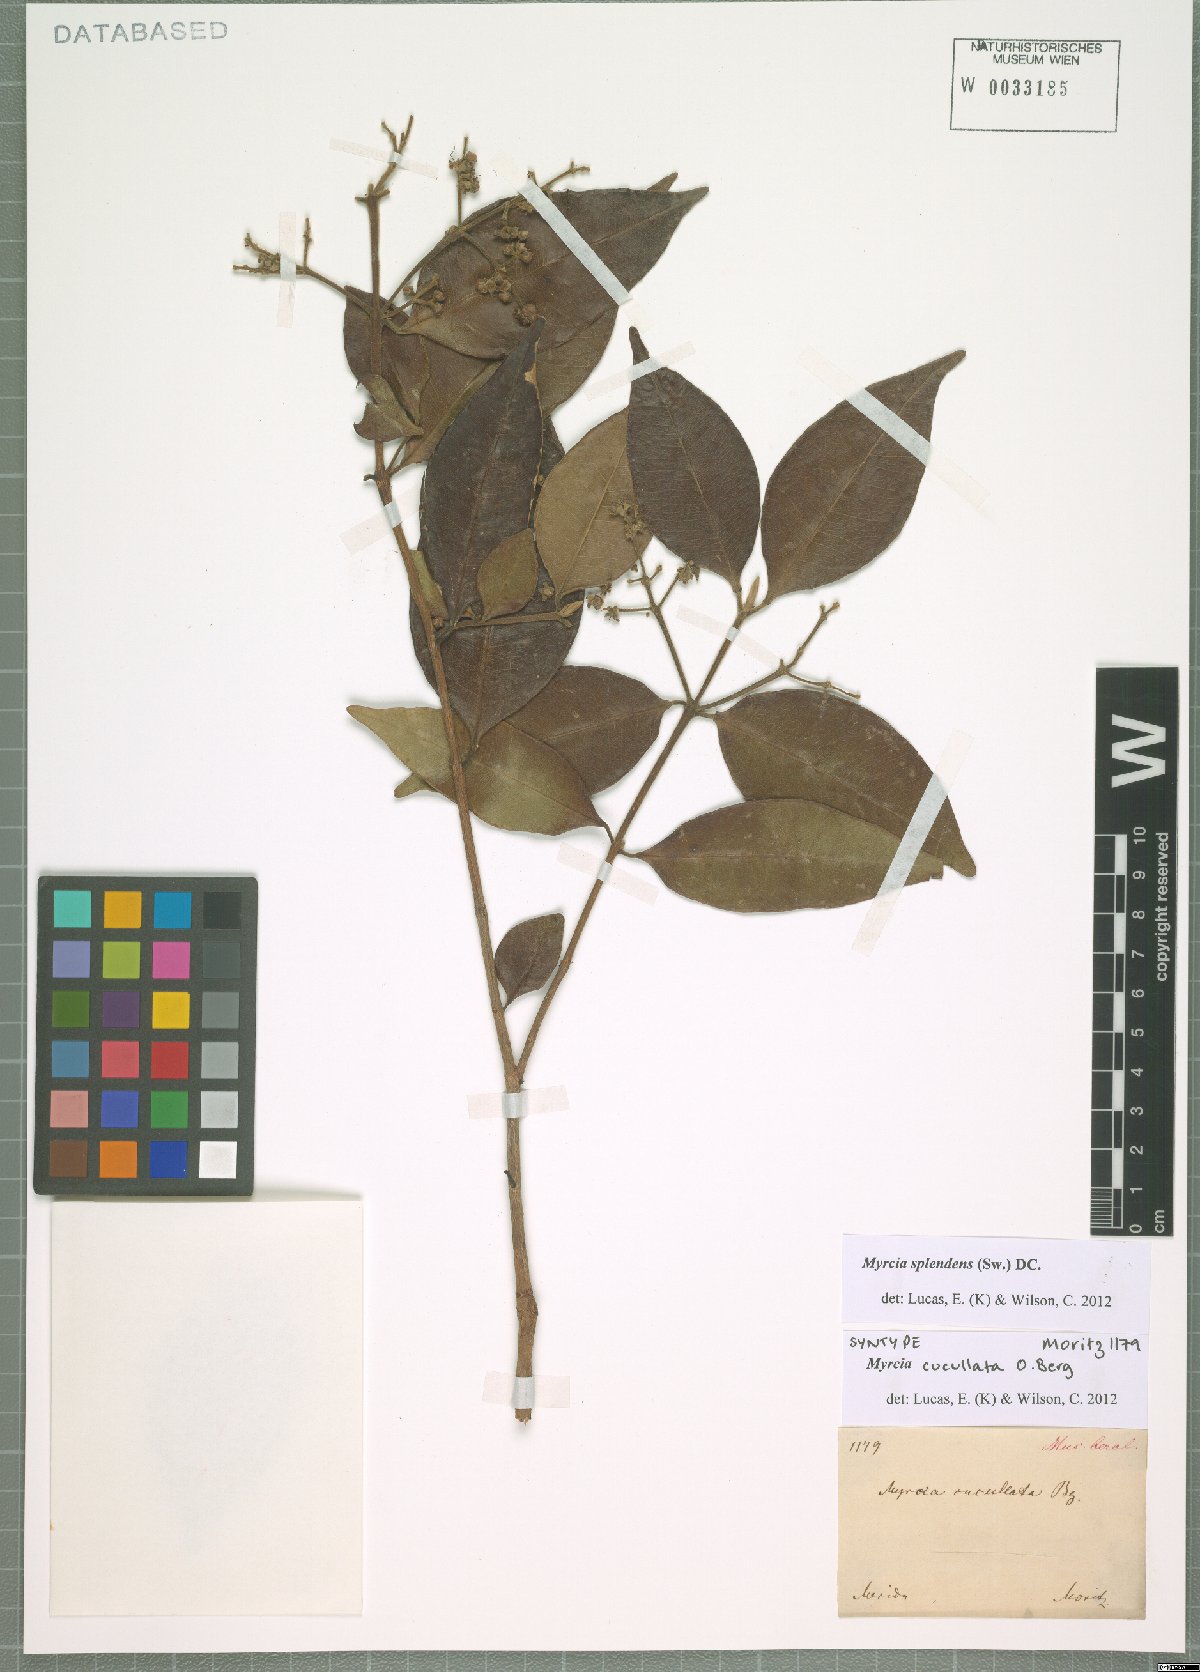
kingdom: Plantae
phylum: Tracheophyta
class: Magnoliopsida
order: Myrtales
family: Myrtaceae
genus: Myrcia
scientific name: Myrcia splendens
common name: Surinam cherry
